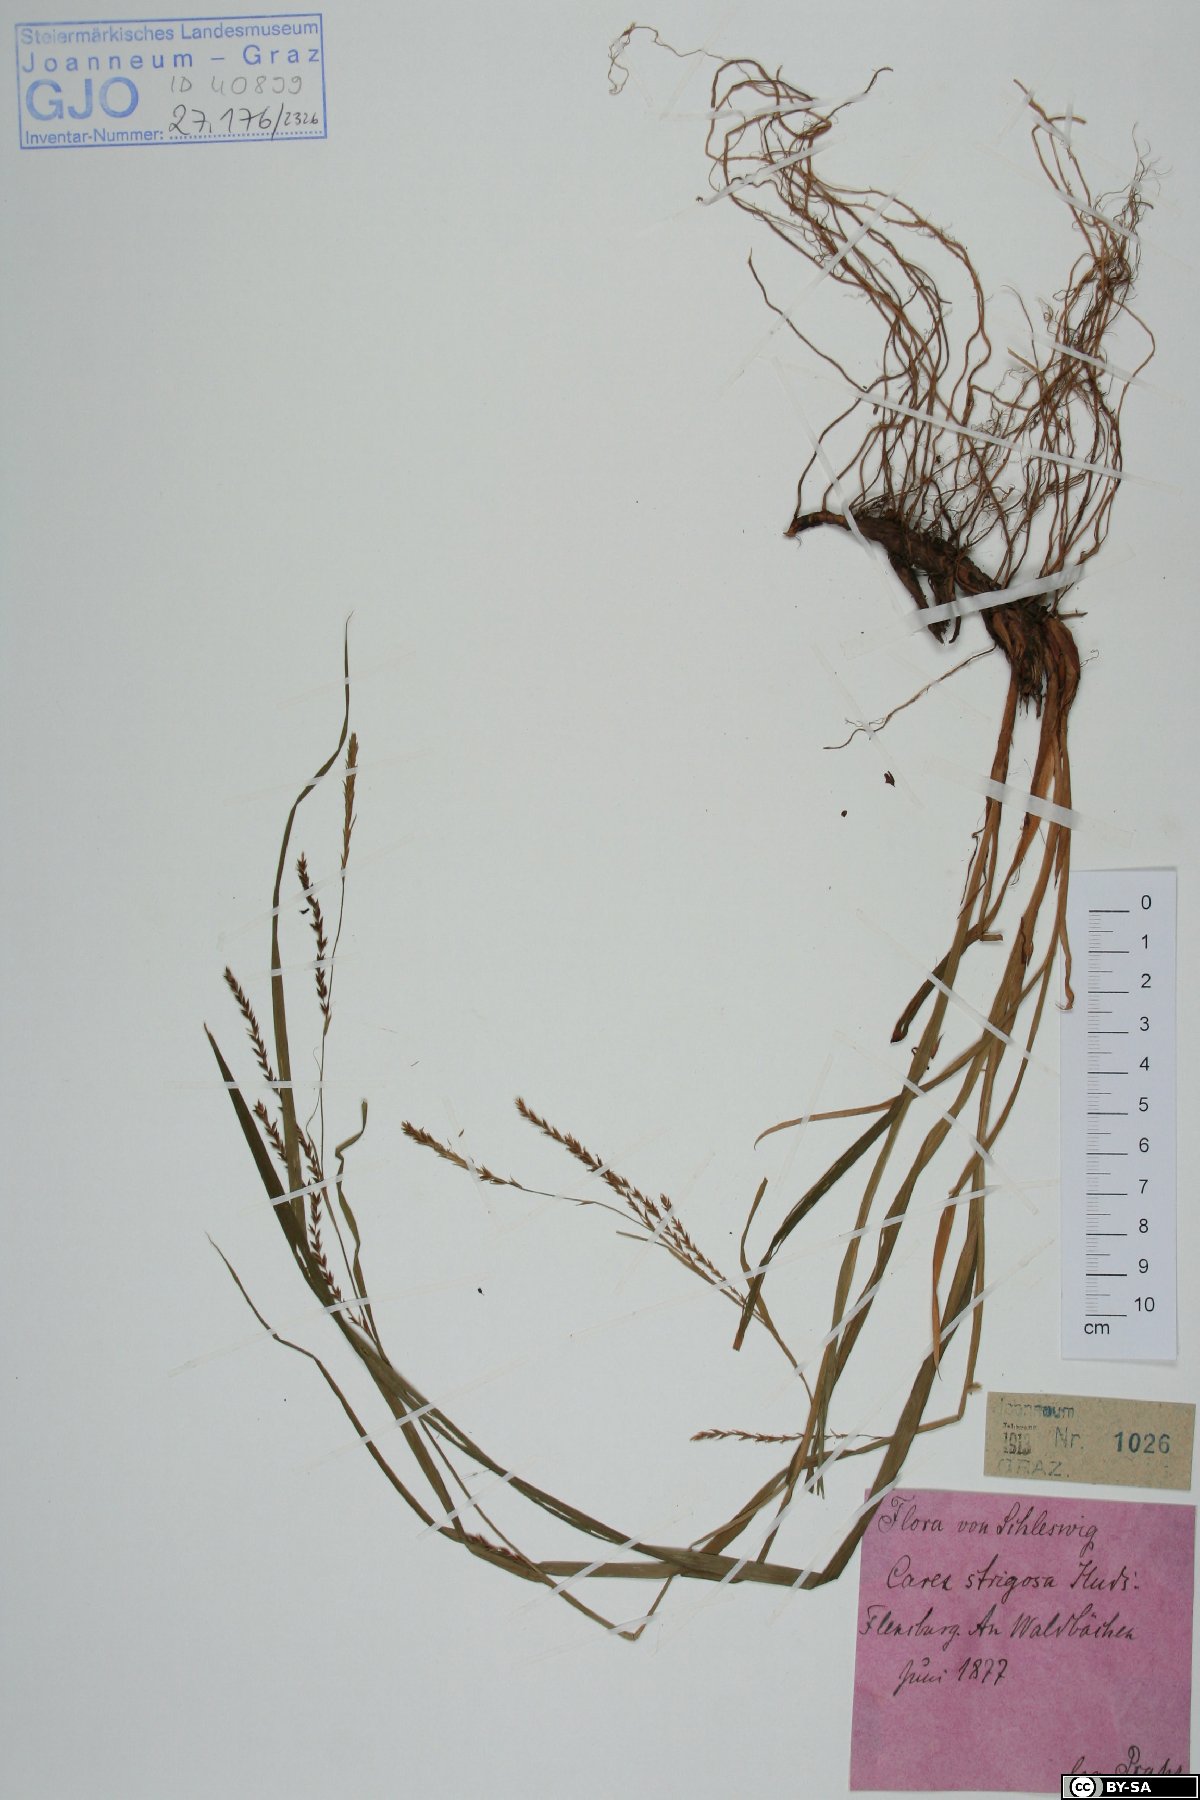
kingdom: Plantae
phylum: Tracheophyta
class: Liliopsida
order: Poales
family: Cyperaceae
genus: Carex
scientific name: Carex strigosa
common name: Thin-spiked wood-sedge
